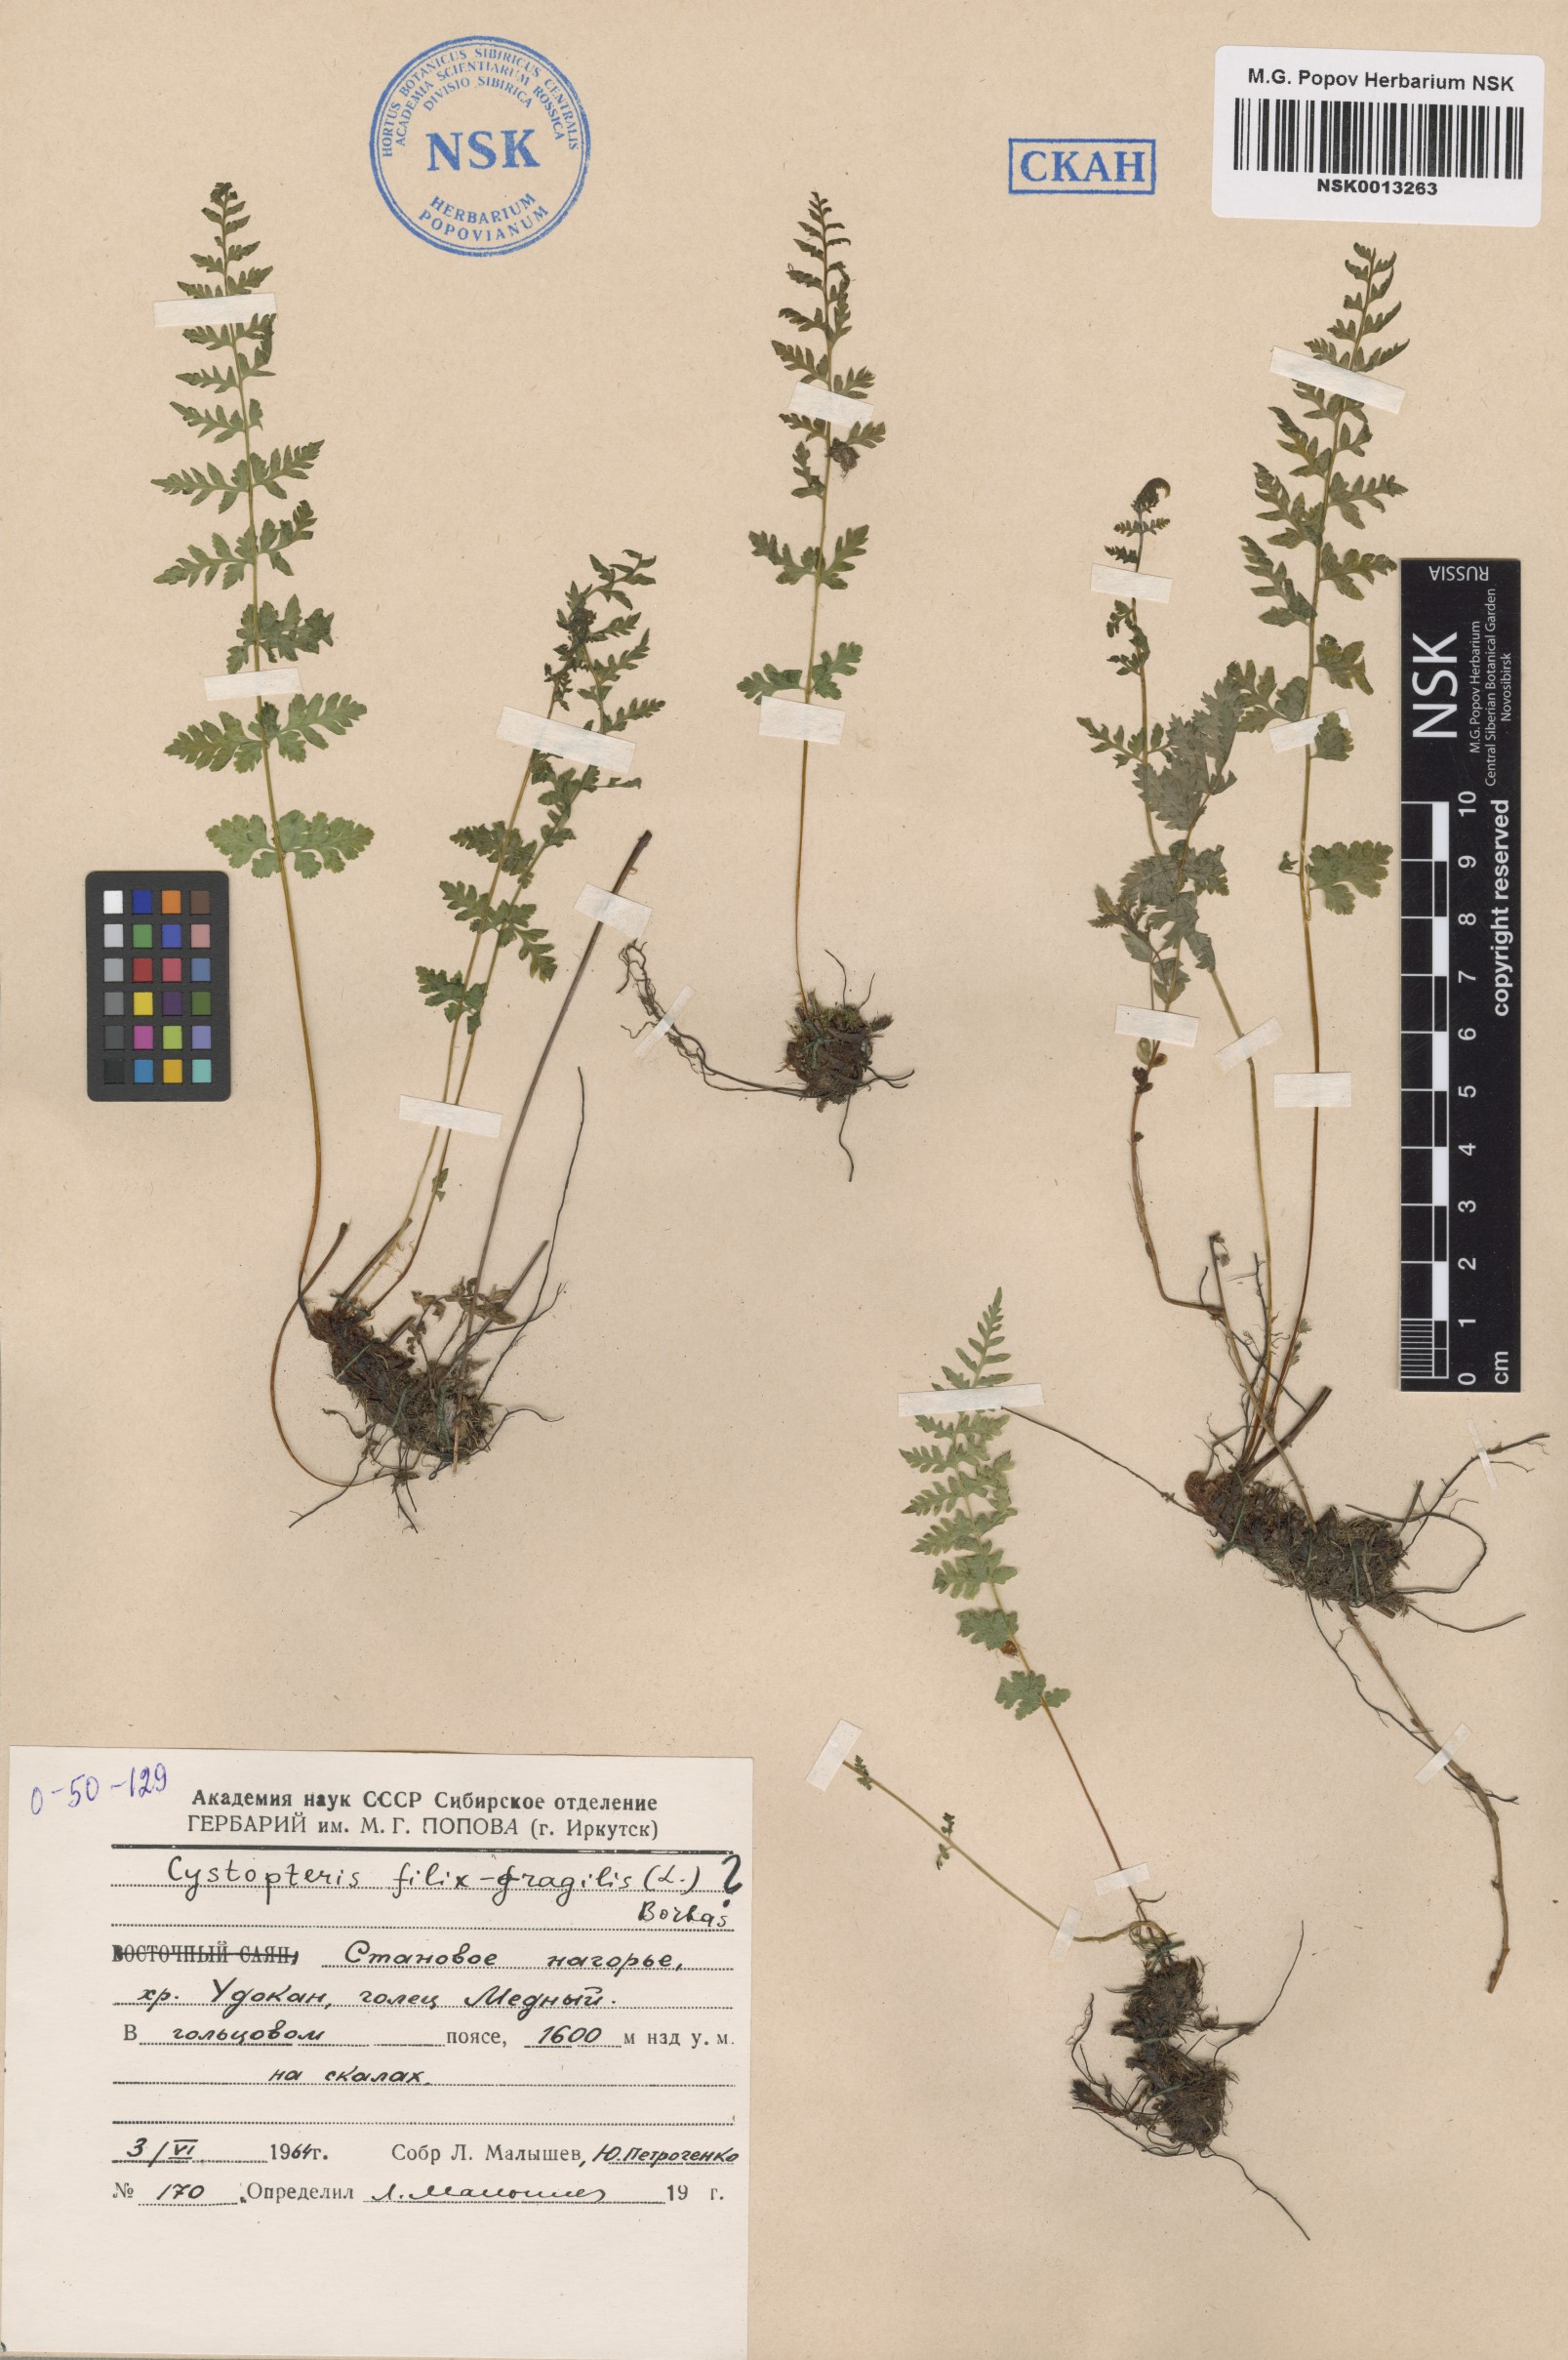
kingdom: Plantae
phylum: Tracheophyta
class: Polypodiopsida
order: Polypodiales
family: Cystopteridaceae
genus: Cystopteris
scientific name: Cystopteris fragilis
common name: Brittle bladder fern
